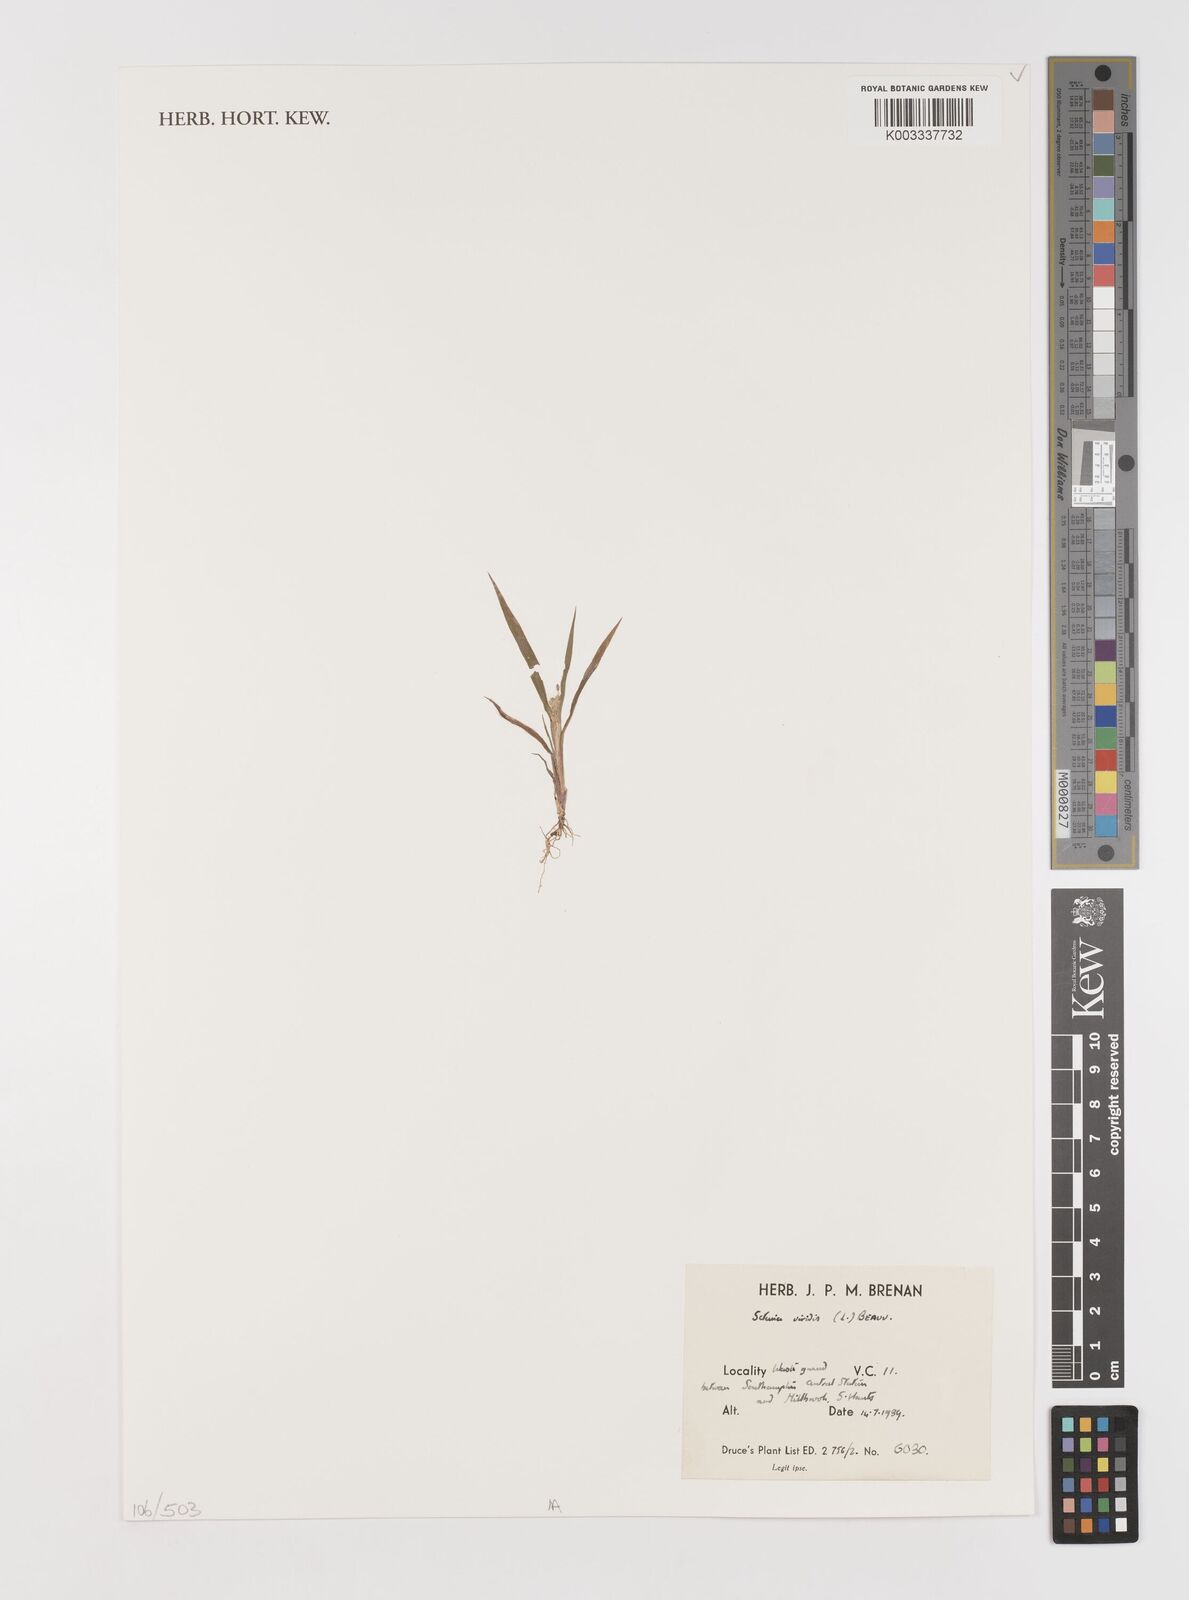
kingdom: Plantae
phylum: Tracheophyta
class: Liliopsida
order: Poales
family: Poaceae
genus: Setaria
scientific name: Setaria viridis
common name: Green bristlegrass
